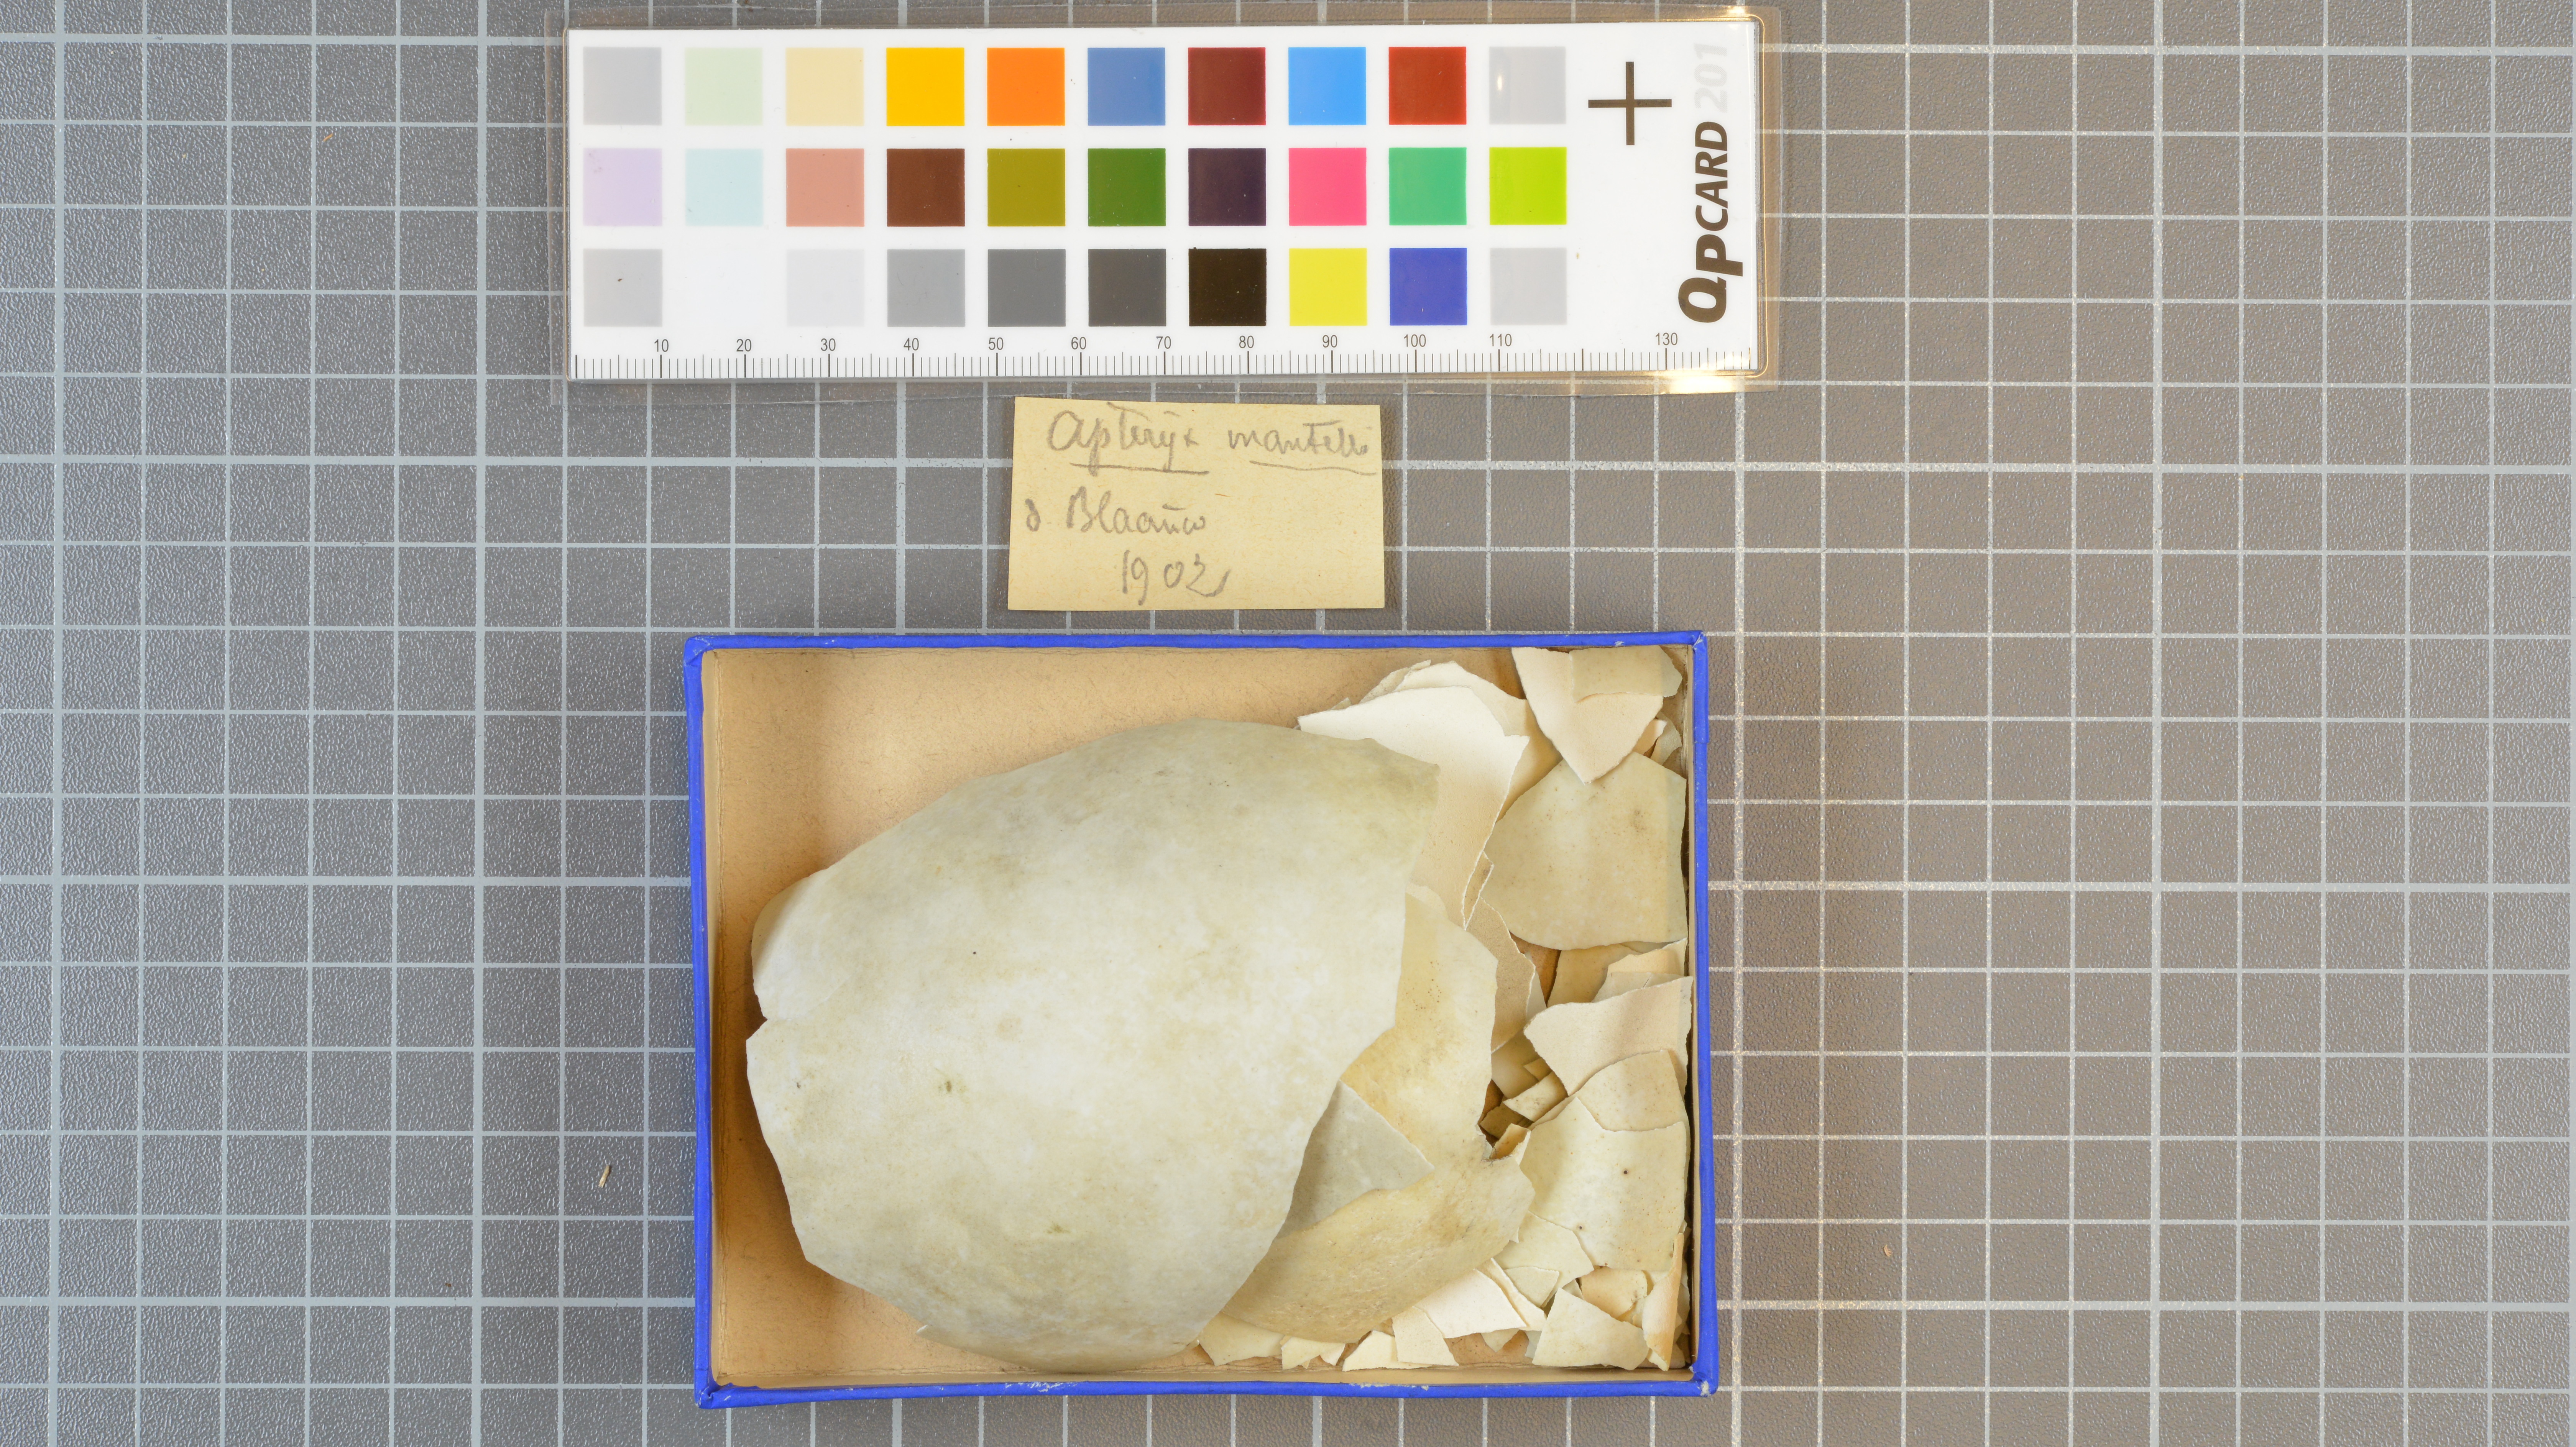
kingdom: Animalia
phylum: Chordata
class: Aves
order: Apterygiformes
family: Apterygidae
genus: Apteryx
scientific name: Apteryx mantelli
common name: North island brown kiwi
